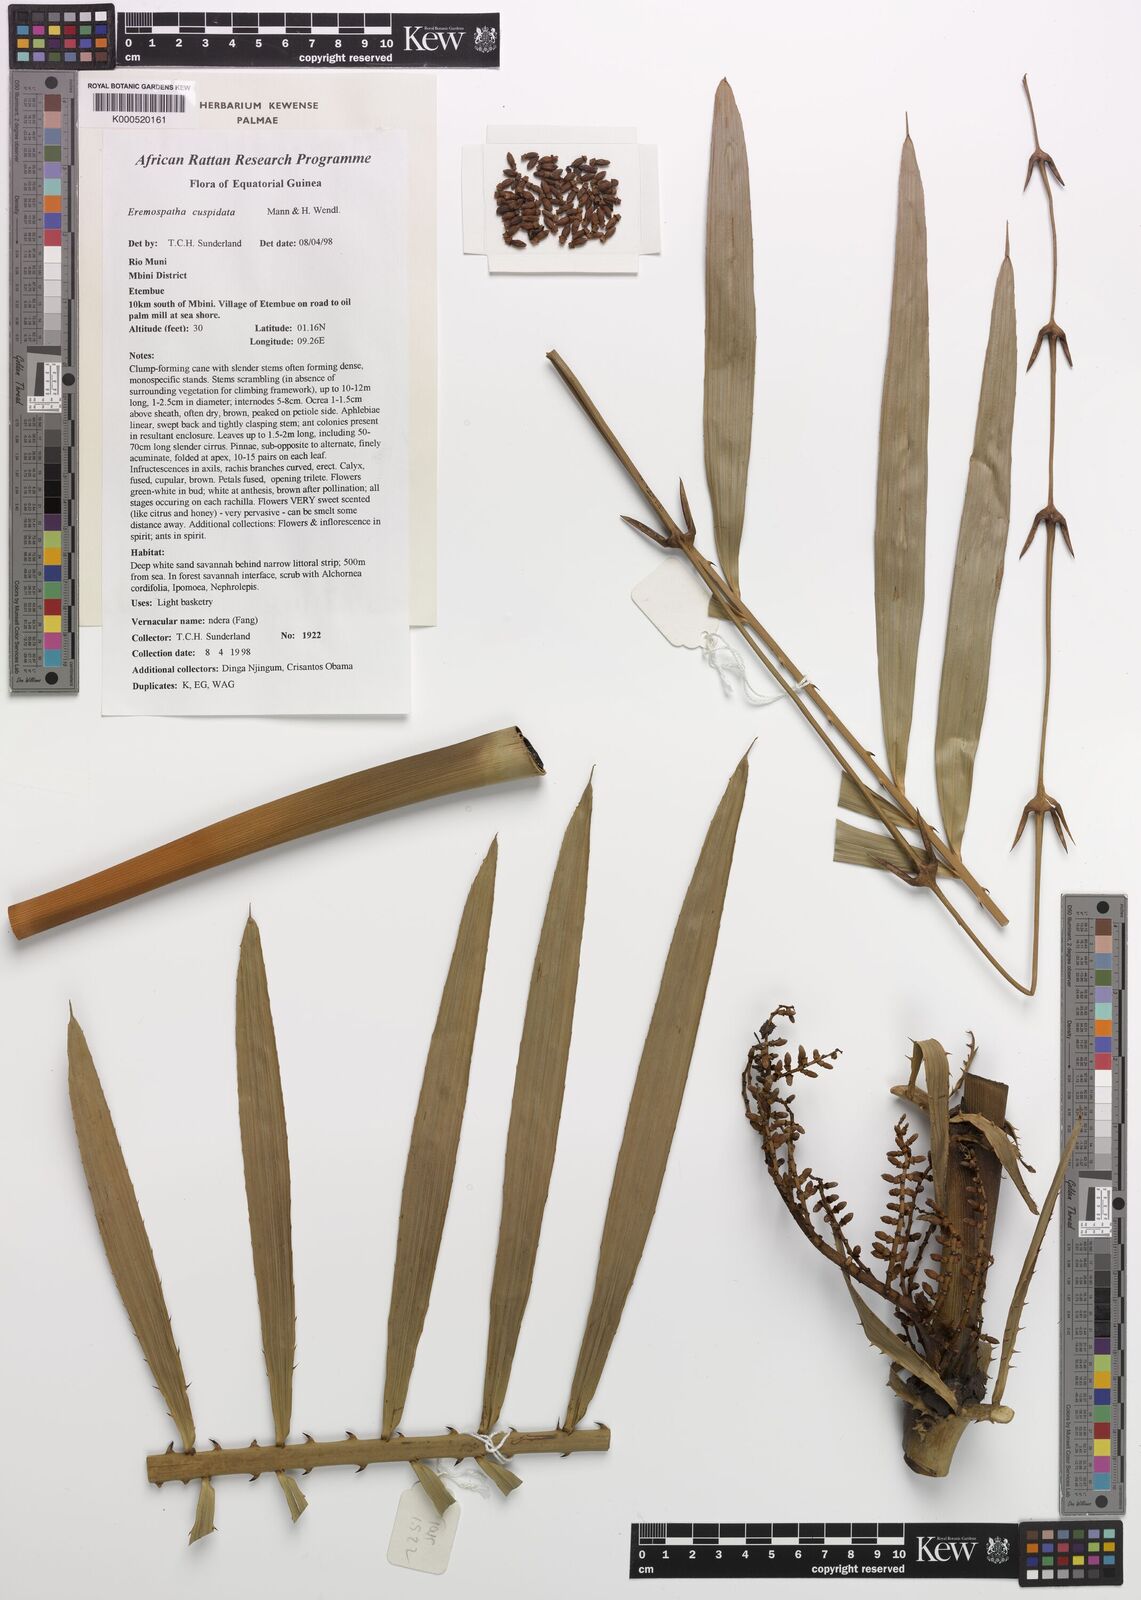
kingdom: Plantae
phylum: Tracheophyta
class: Liliopsida
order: Arecales
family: Arecaceae
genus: Eremospatha
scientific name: Eremospatha cuspidata
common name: Rattan
